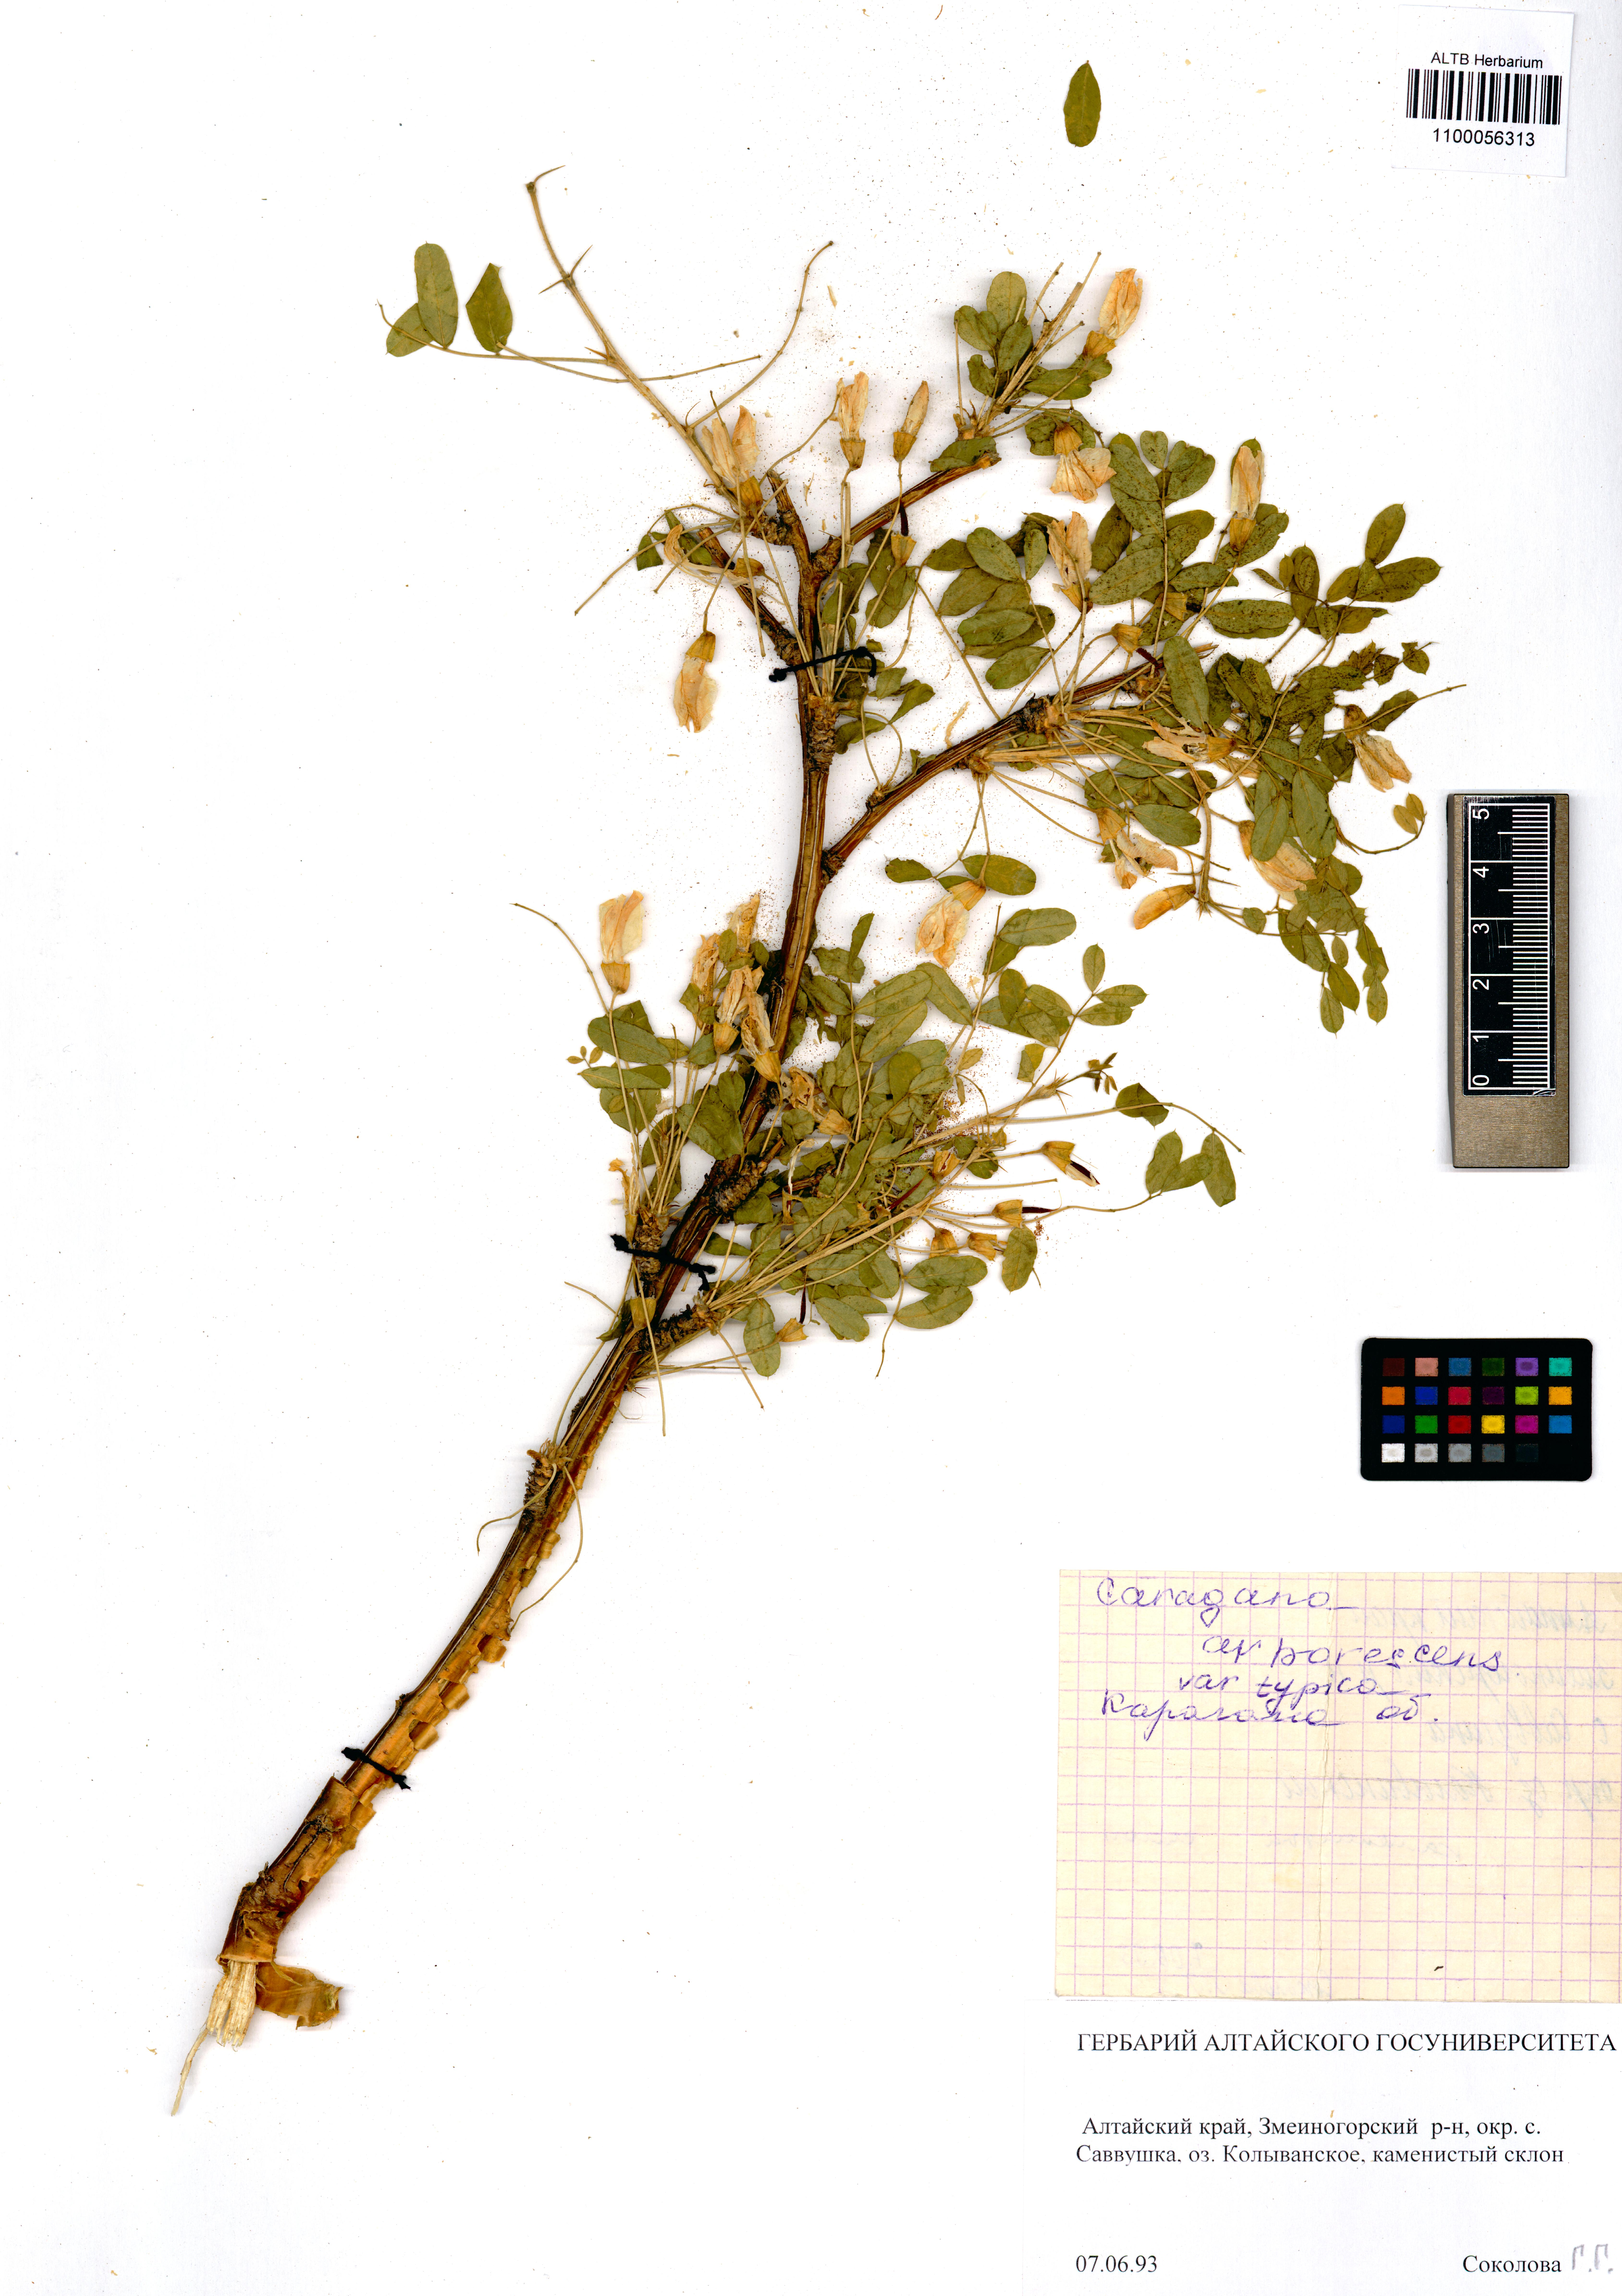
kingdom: Plantae
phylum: Tracheophyta
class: Magnoliopsida
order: Fabales
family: Fabaceae
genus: Caragana
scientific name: Caragana arborescens
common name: Siberian peashrub
